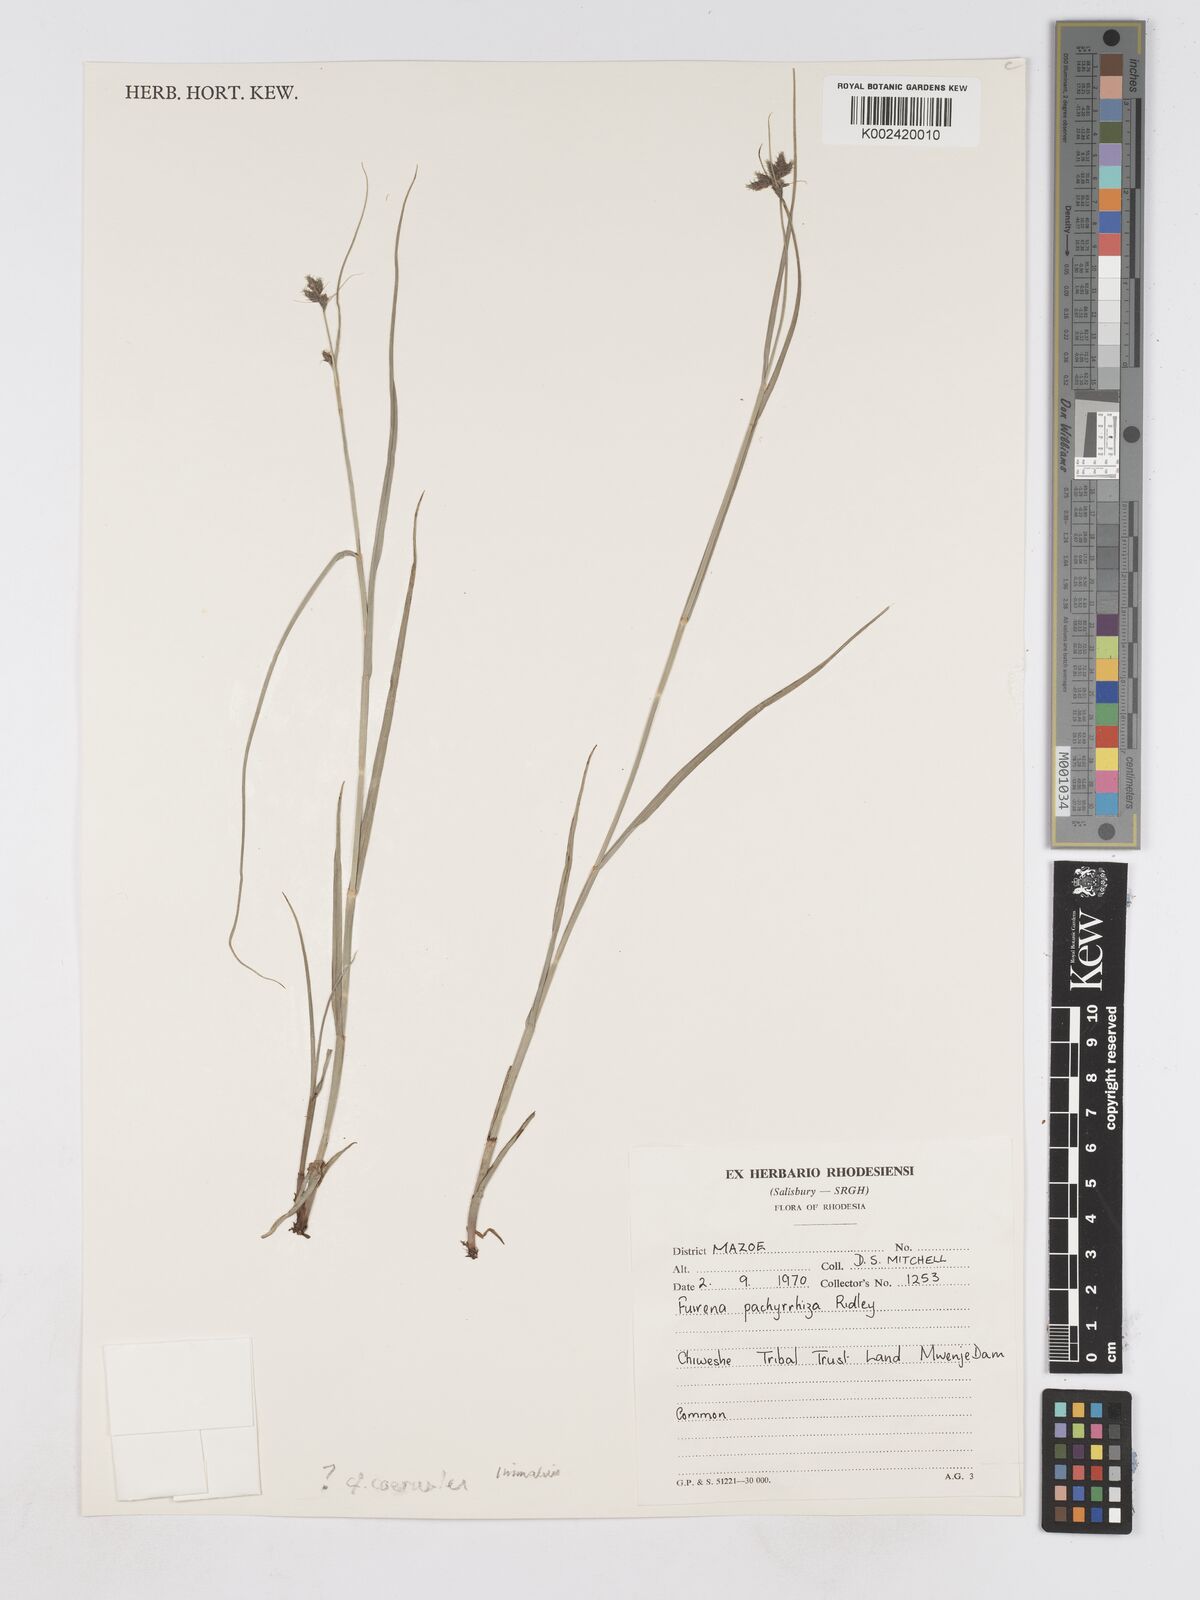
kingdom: Plantae
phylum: Tracheophyta
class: Liliopsida
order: Poales
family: Cyperaceae
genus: Fuirena
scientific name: Fuirena coerulescens
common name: Blue umbrella-sedge
